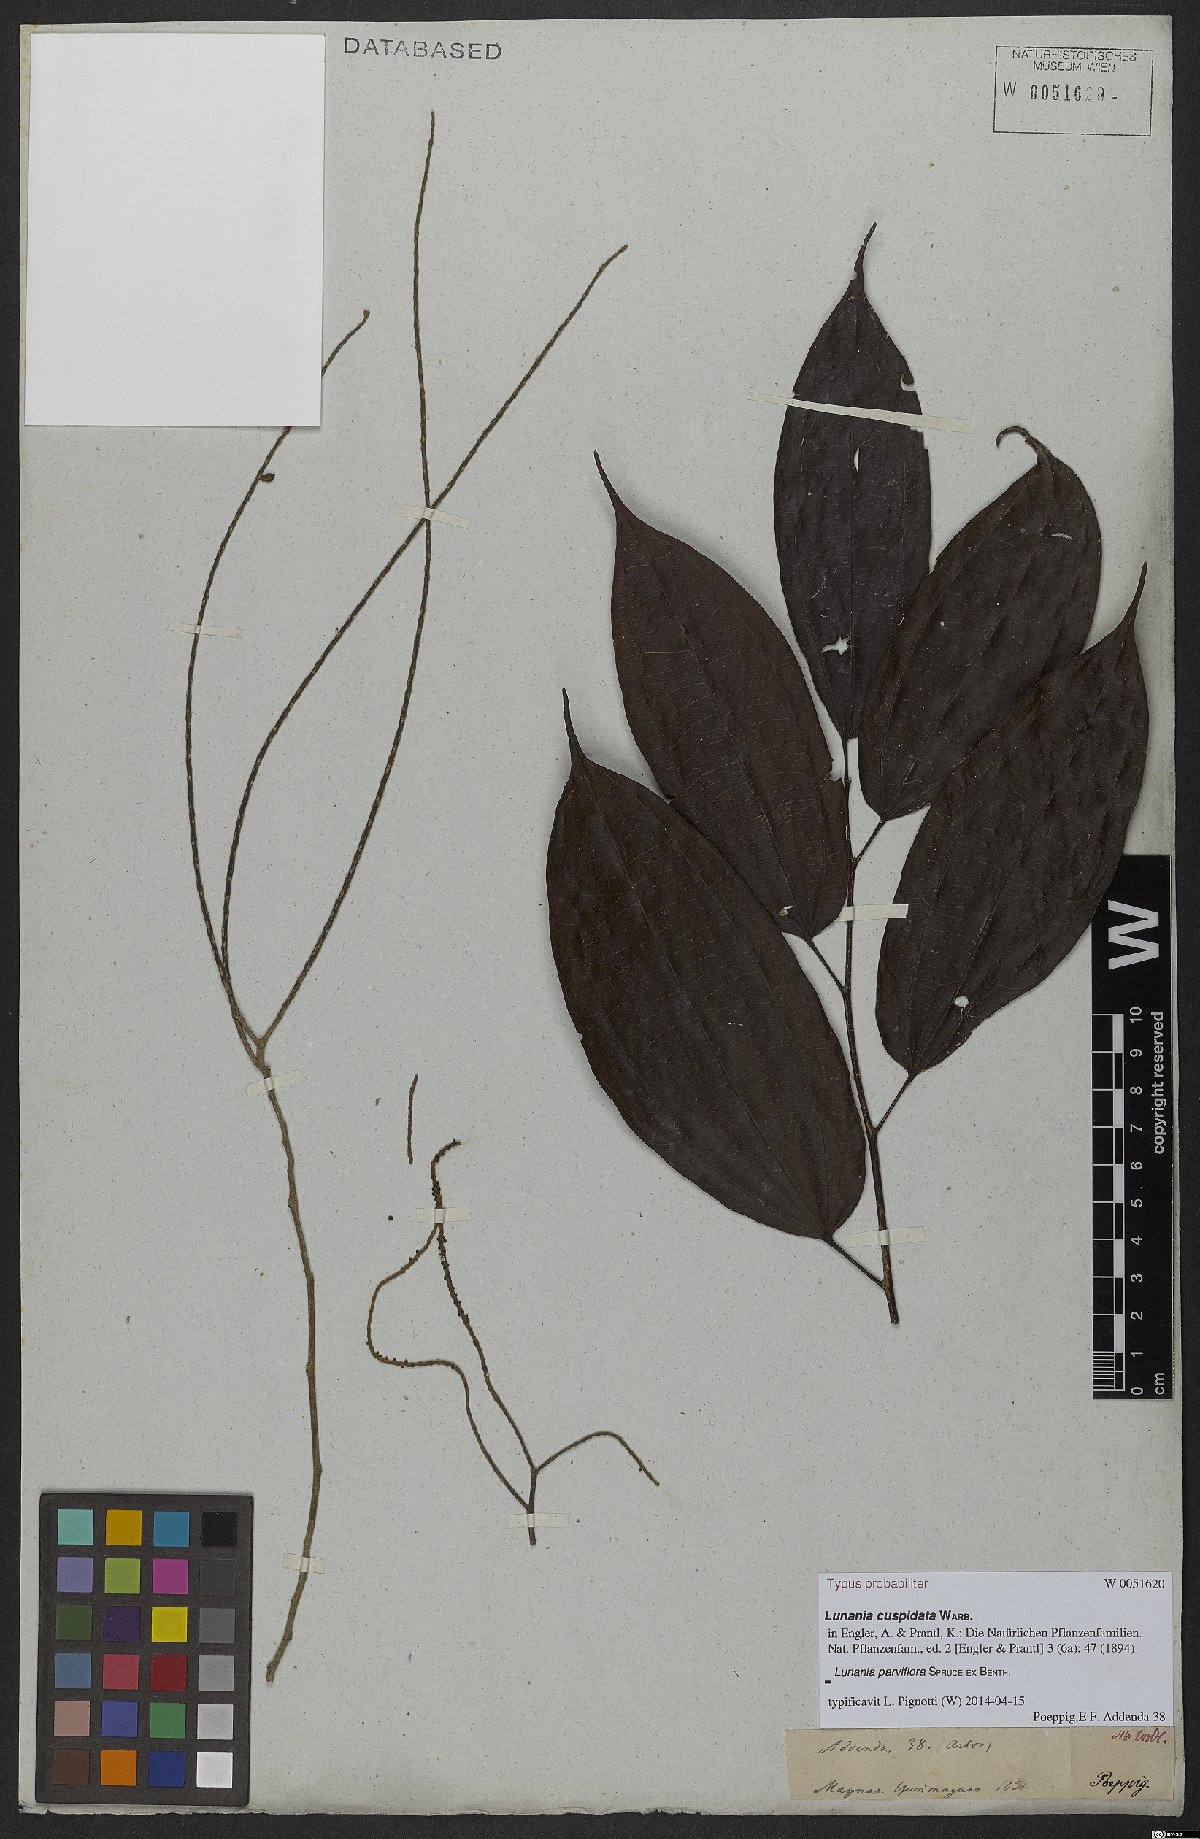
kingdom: Plantae
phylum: Tracheophyta
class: Magnoliopsida
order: Malpighiales
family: Salicaceae
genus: Lunania
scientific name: Lunania parviflora
